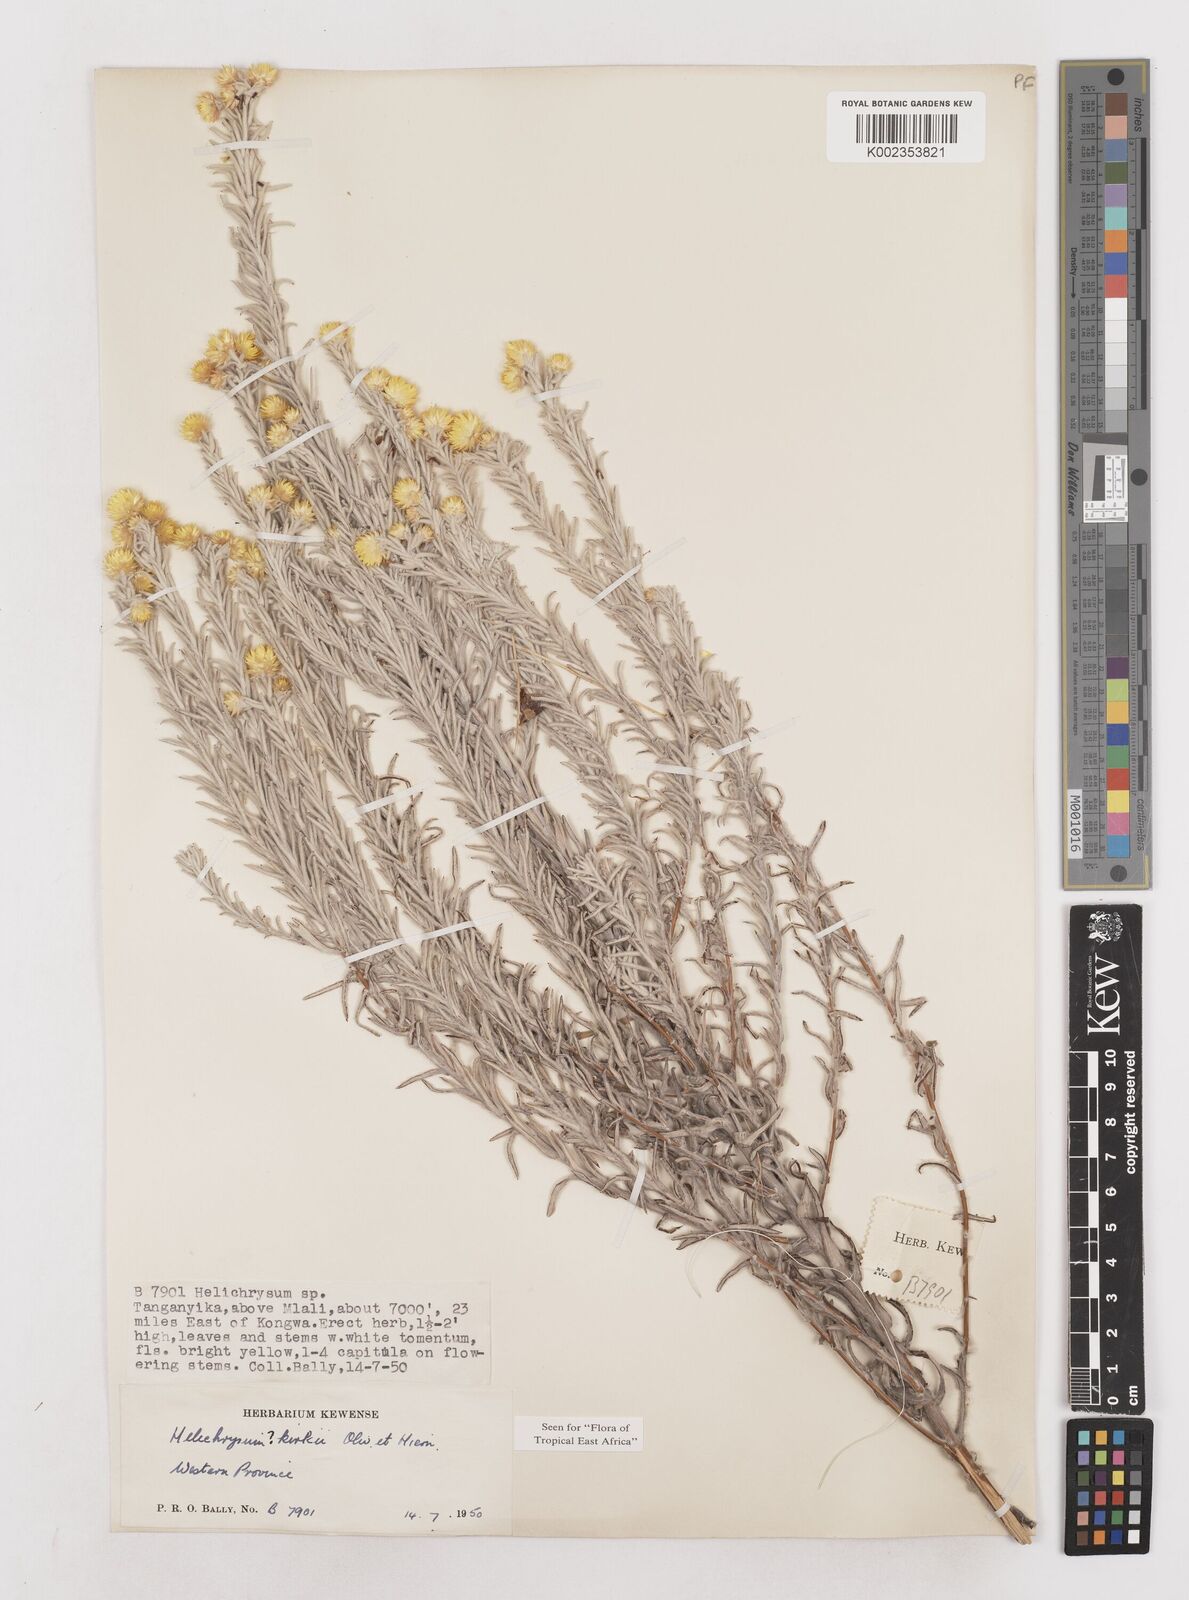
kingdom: Plantae
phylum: Tracheophyta
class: Magnoliopsida
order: Asterales
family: Asteraceae
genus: Helichrysum
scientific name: Helichrysum kirkii
